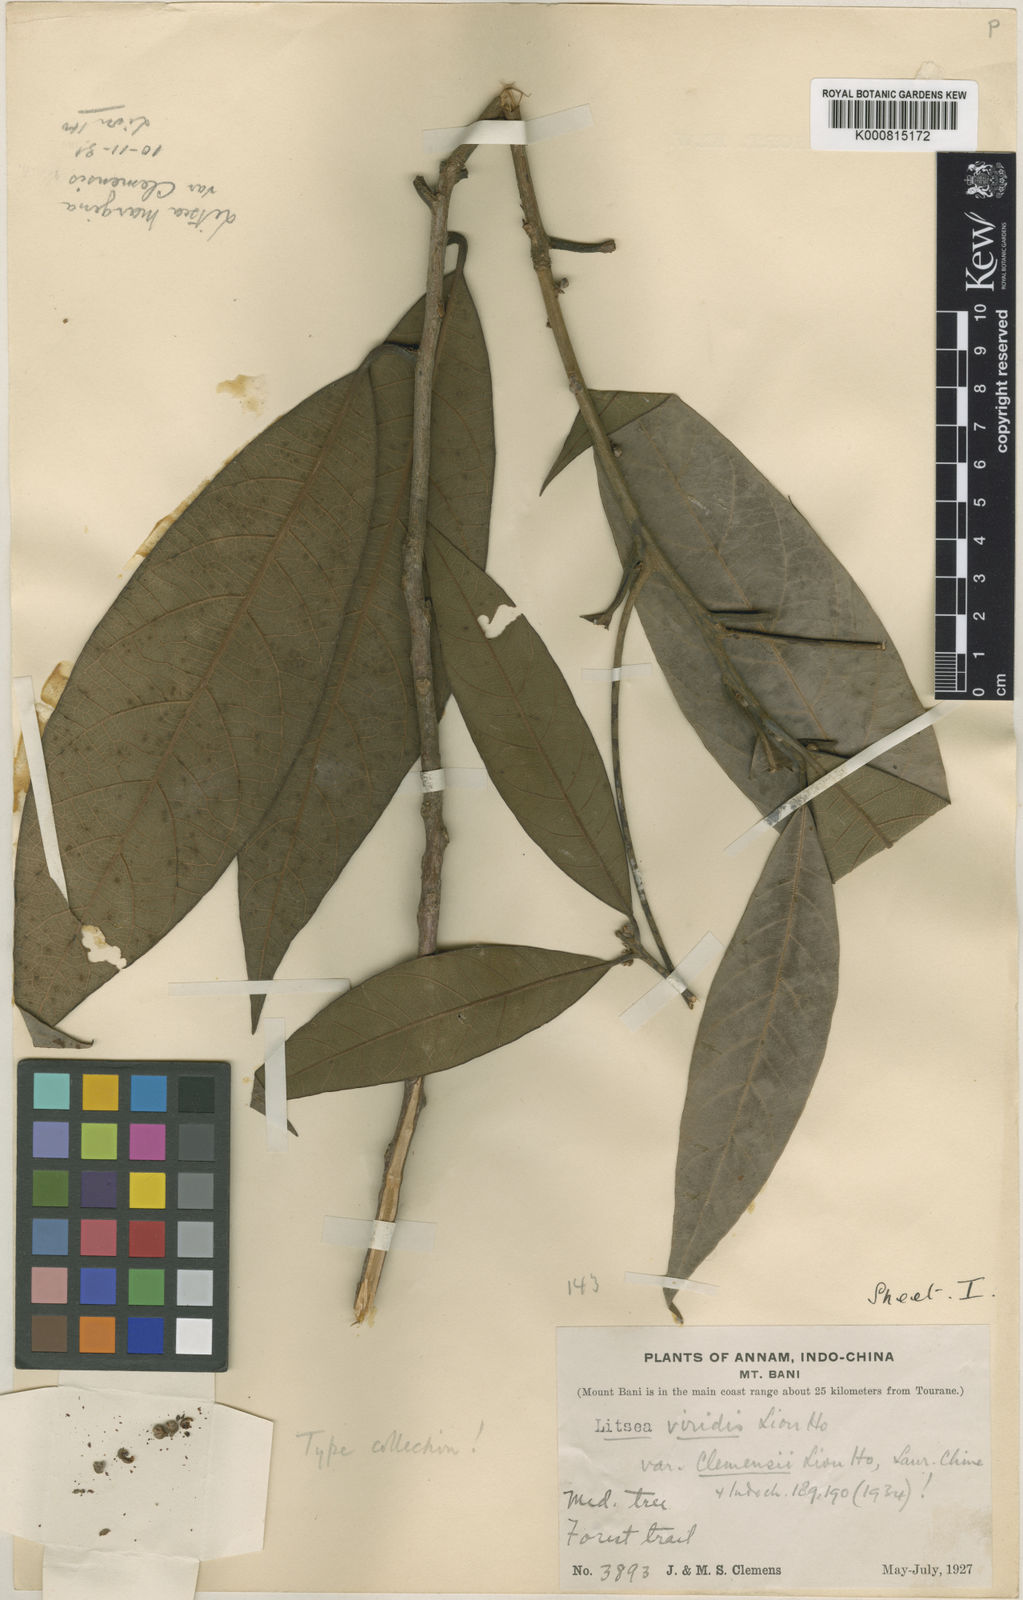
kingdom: Plantae
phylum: Tracheophyta
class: Magnoliopsida
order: Laurales
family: Lauraceae
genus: Litsea
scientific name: Litsea viridis
